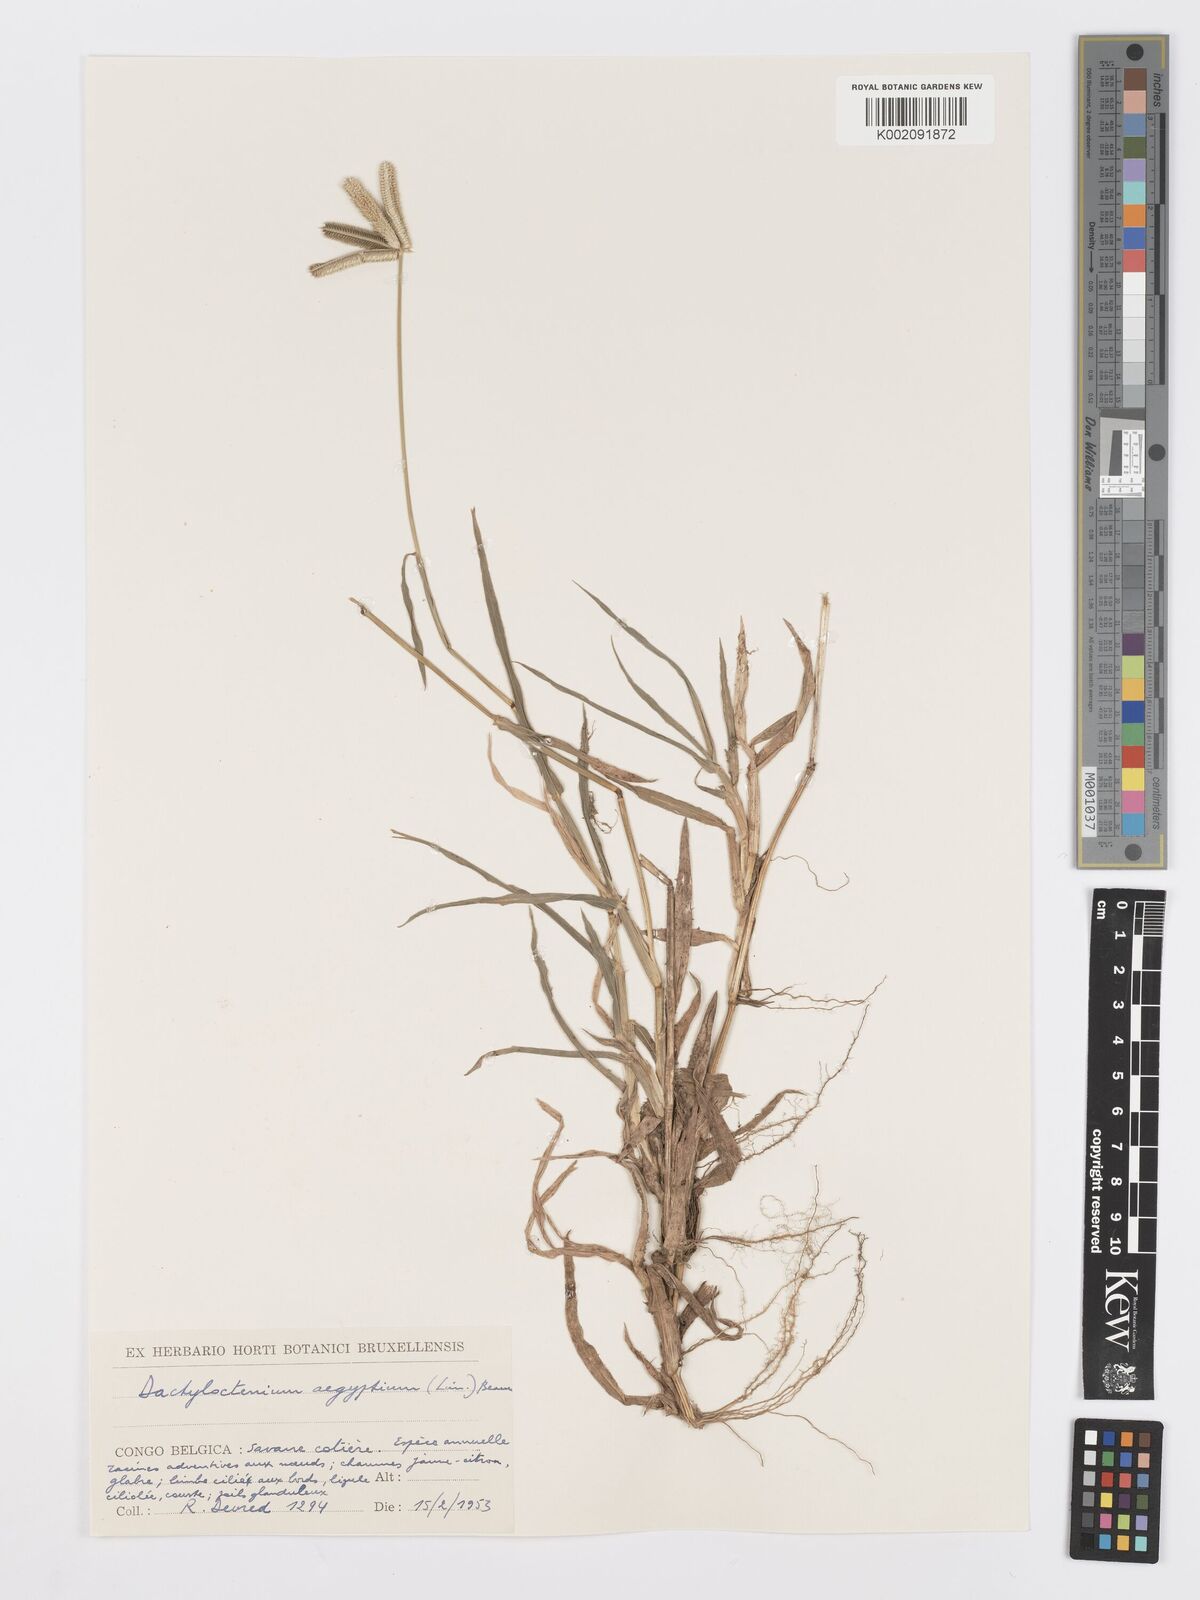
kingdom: Plantae
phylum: Tracheophyta
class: Liliopsida
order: Poales
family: Poaceae
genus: Dactyloctenium
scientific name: Dactyloctenium aegyptium
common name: Egyptian grass
